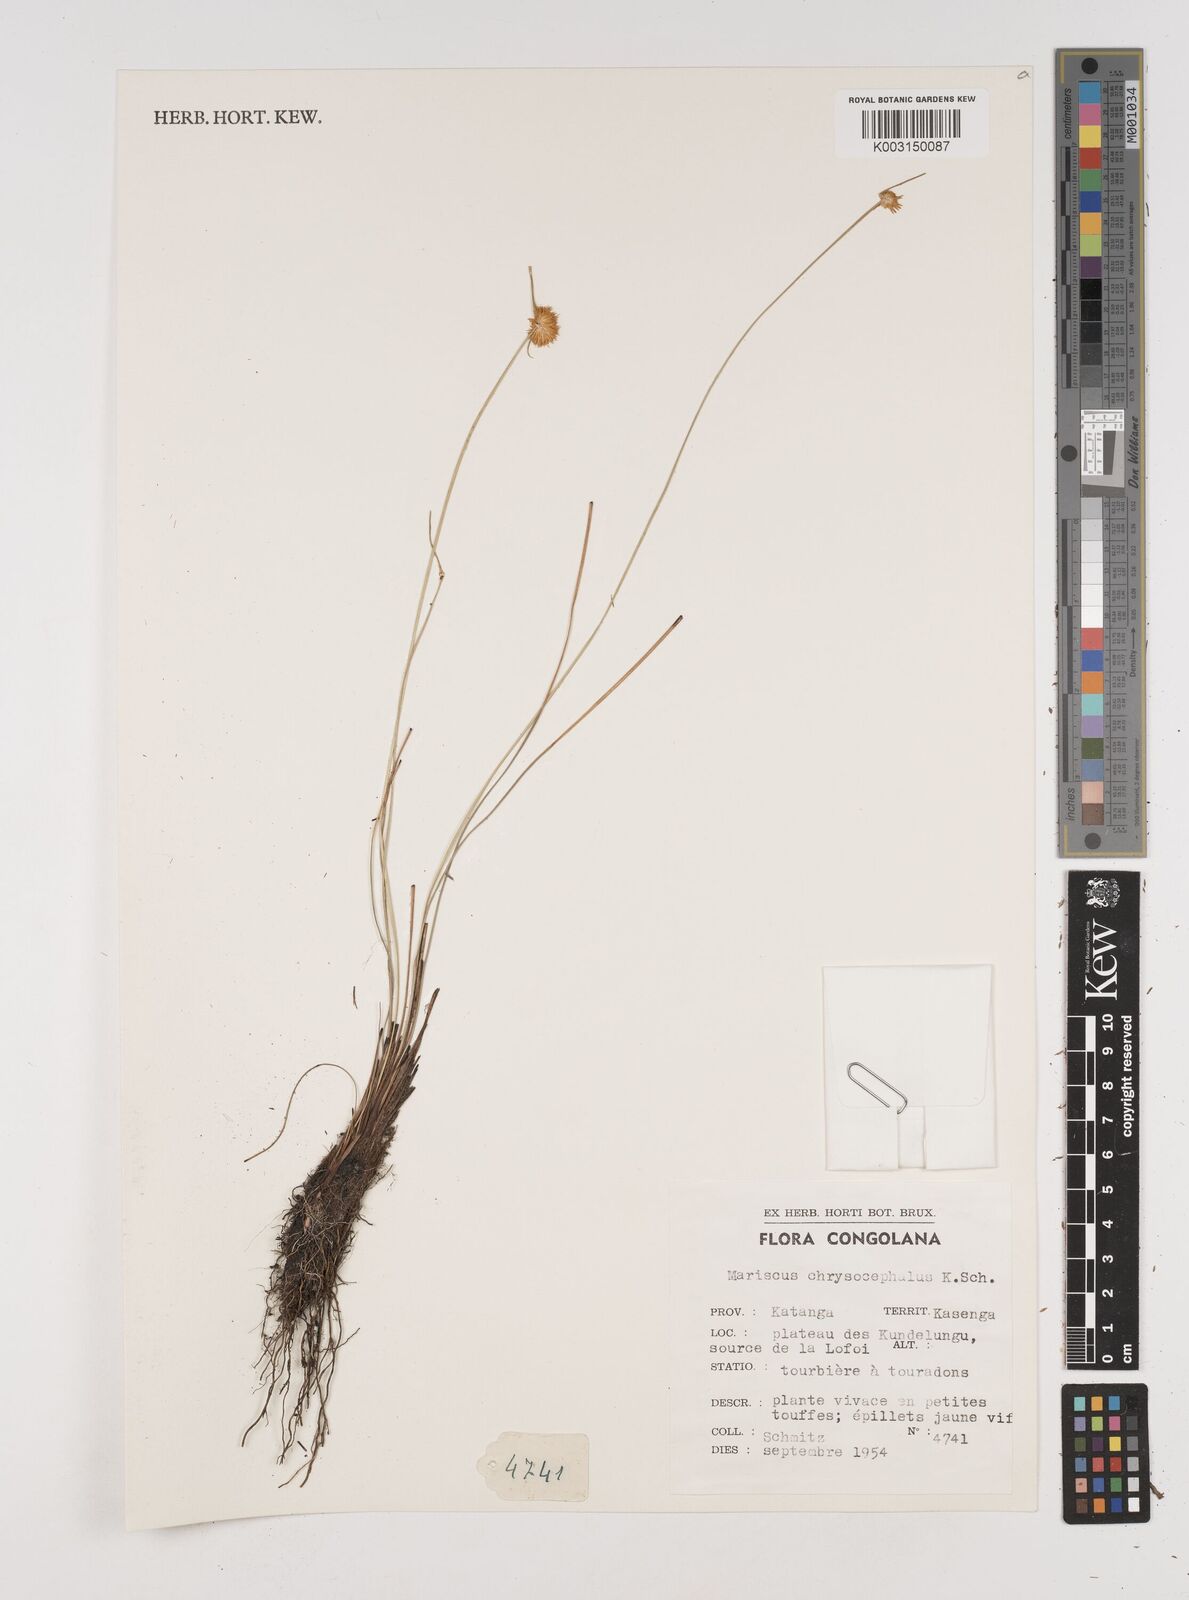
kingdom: Plantae
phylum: Tracheophyta
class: Liliopsida
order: Poales
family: Cyperaceae
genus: Cyperus
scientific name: Cyperus chrysocephalus
